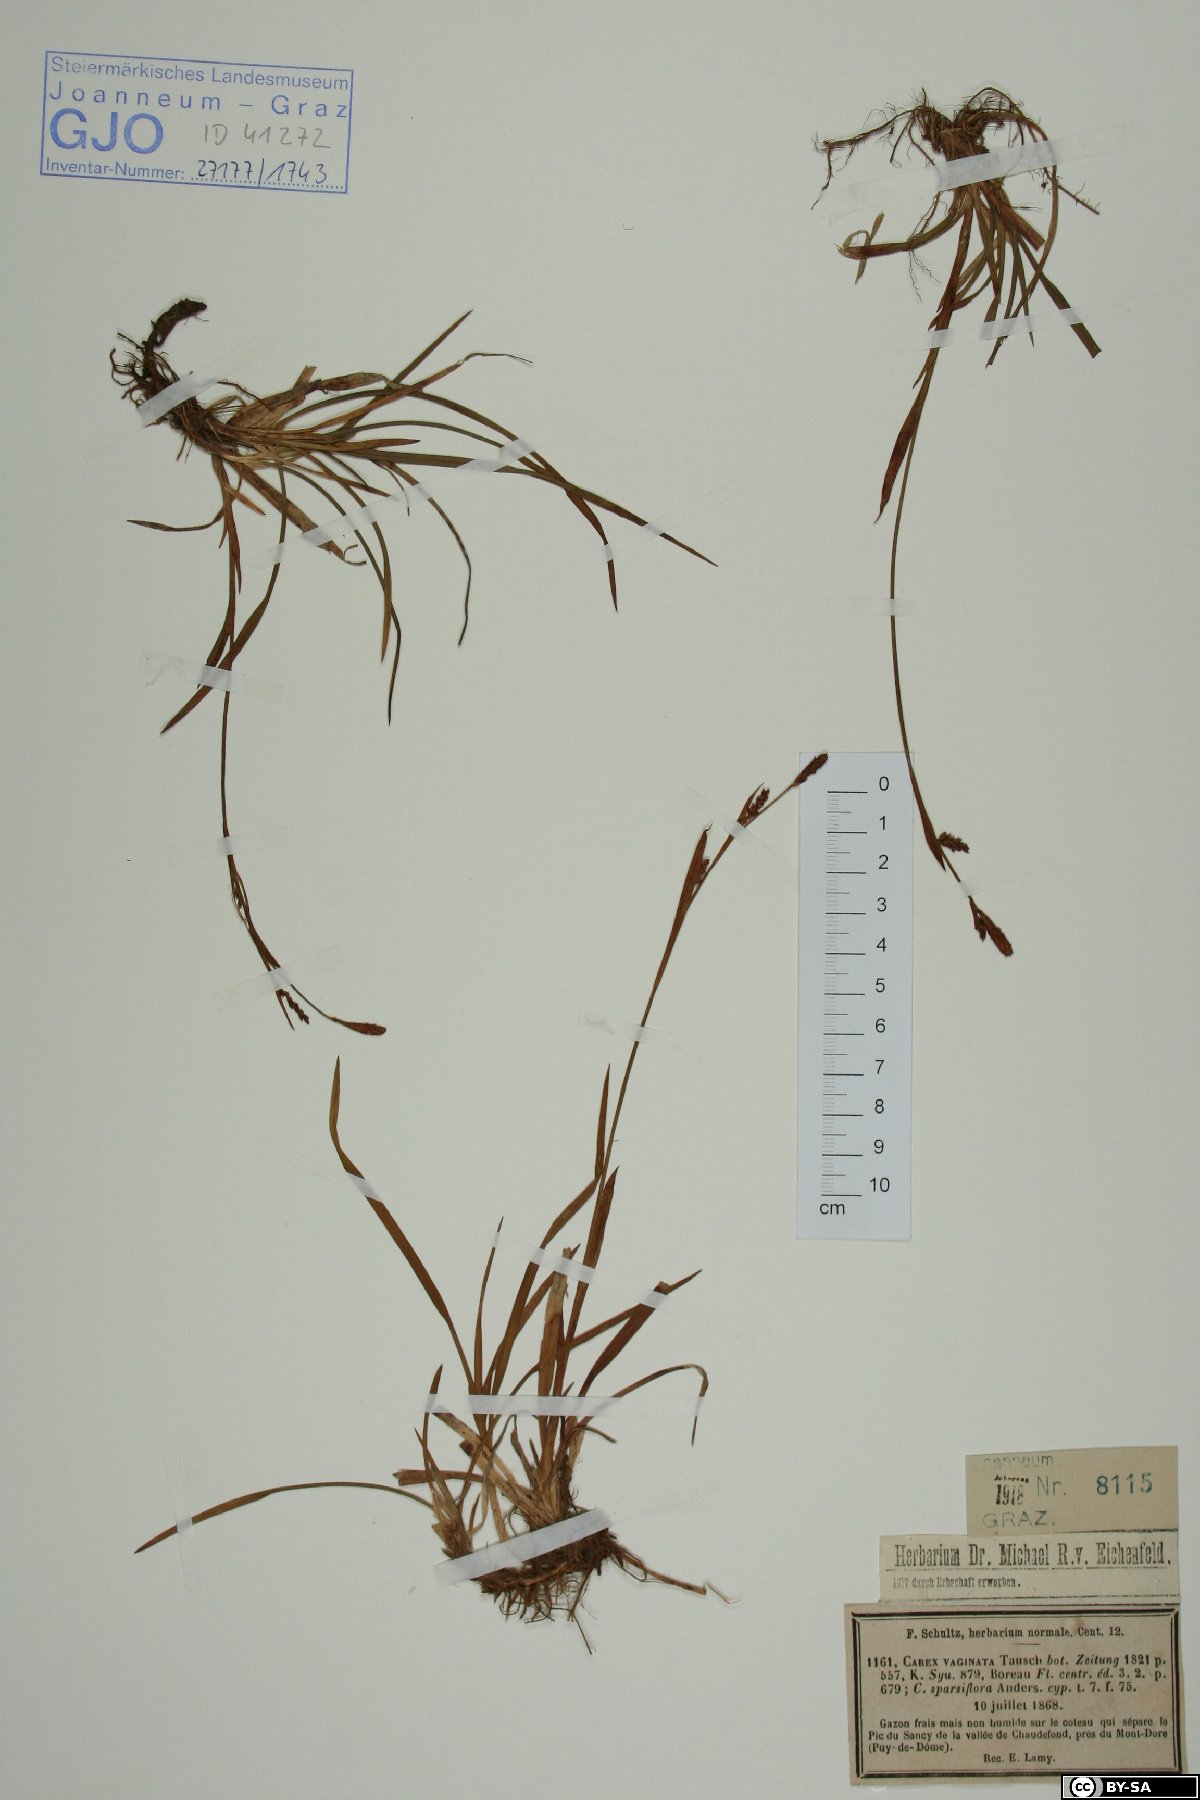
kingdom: Plantae
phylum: Tracheophyta
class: Liliopsida
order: Poales
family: Cyperaceae
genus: Carex
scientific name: Carex vaginata
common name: Sheathed sedge
